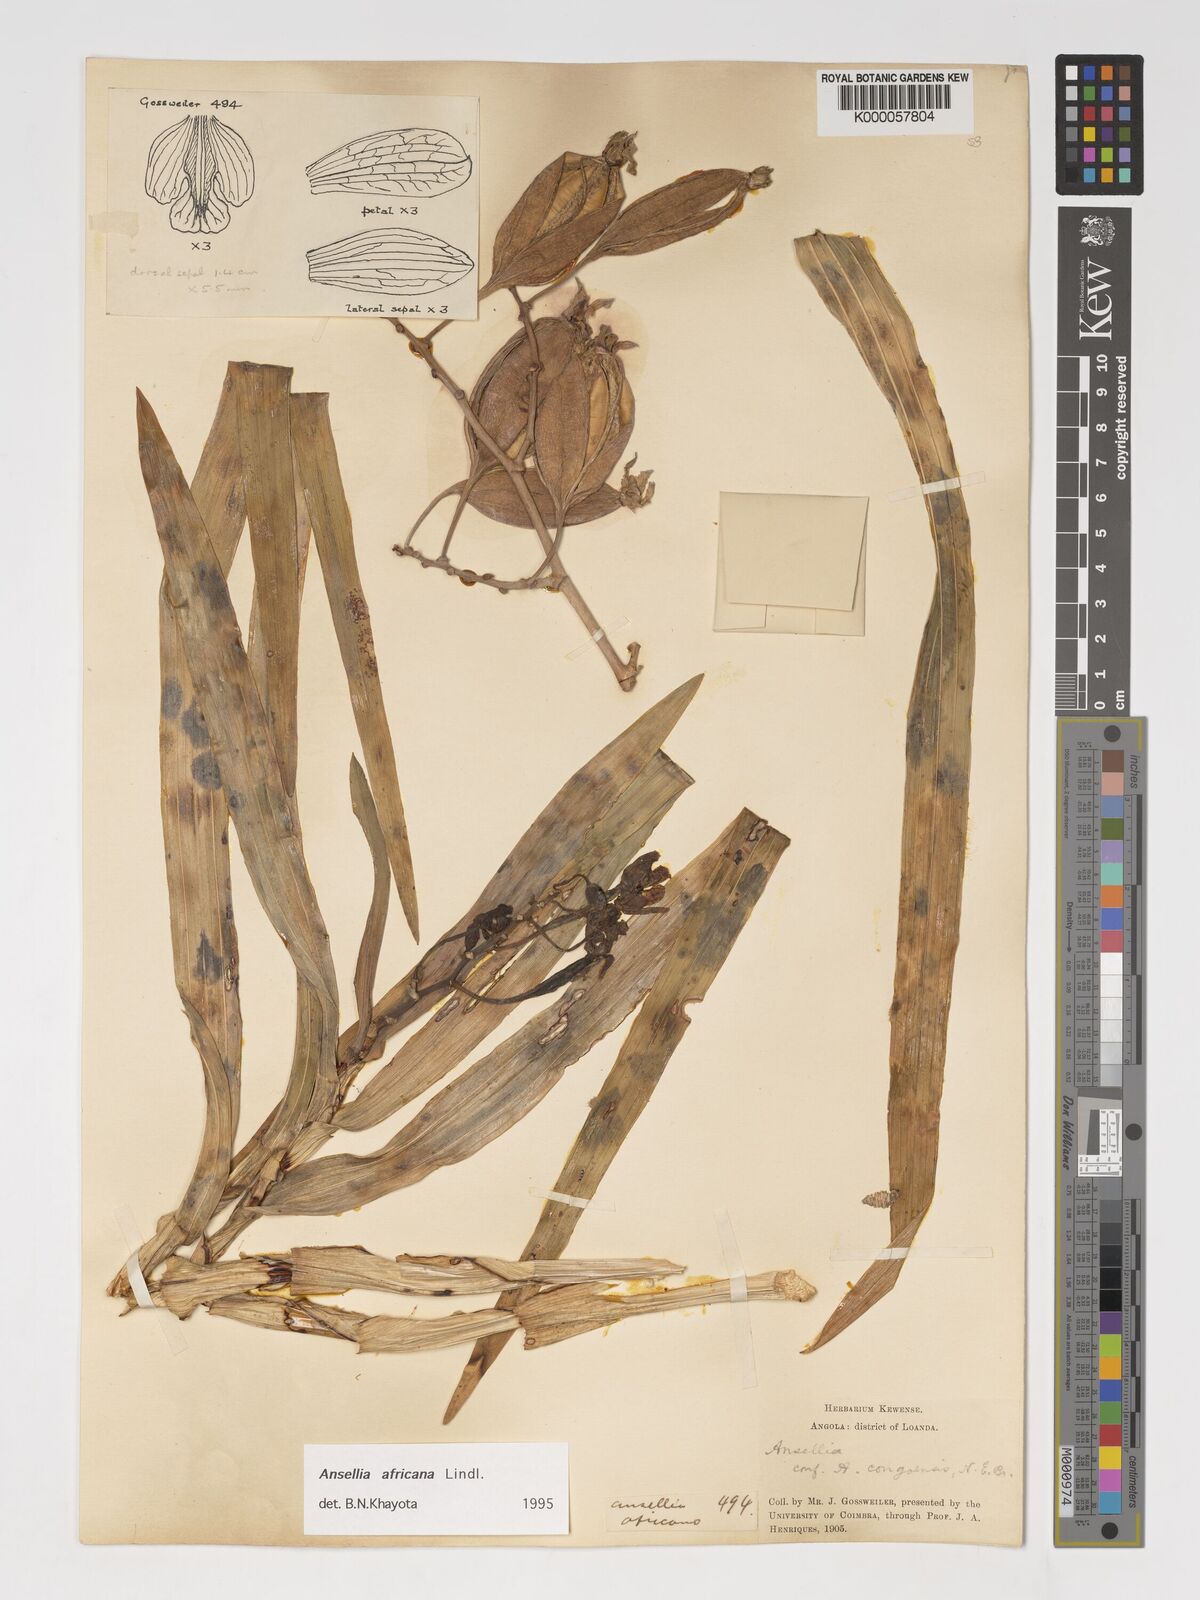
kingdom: Plantae
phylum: Tracheophyta
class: Liliopsida
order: Asparagales
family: Orchidaceae
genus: Ansellia
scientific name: Ansellia africana
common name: African ansellia
